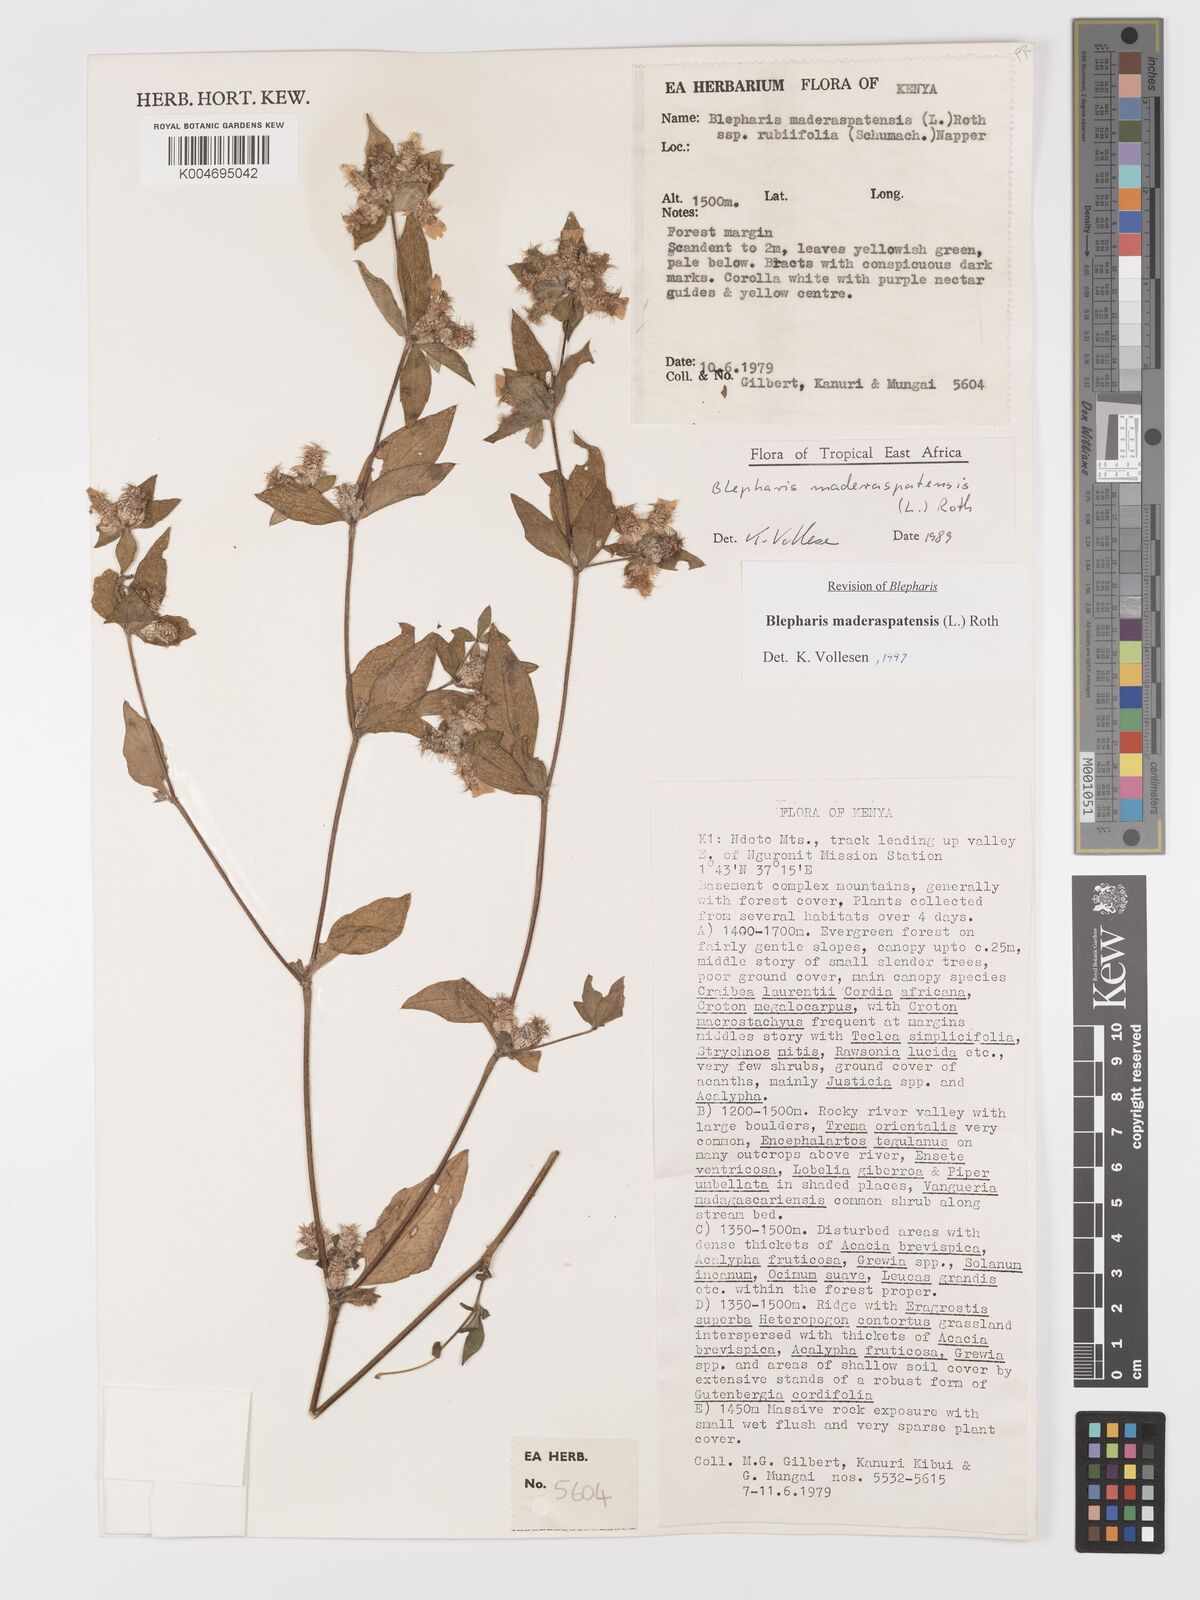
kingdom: Plantae
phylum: Tracheophyta
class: Magnoliopsida
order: Lamiales
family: Acanthaceae
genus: Blepharis
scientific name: Blepharis maderaspatensis
